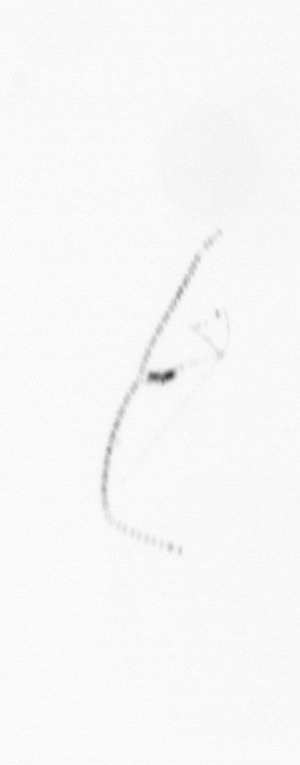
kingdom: Chromista
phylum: Ochrophyta
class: Bacillariophyceae
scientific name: Bacillariophyceae
